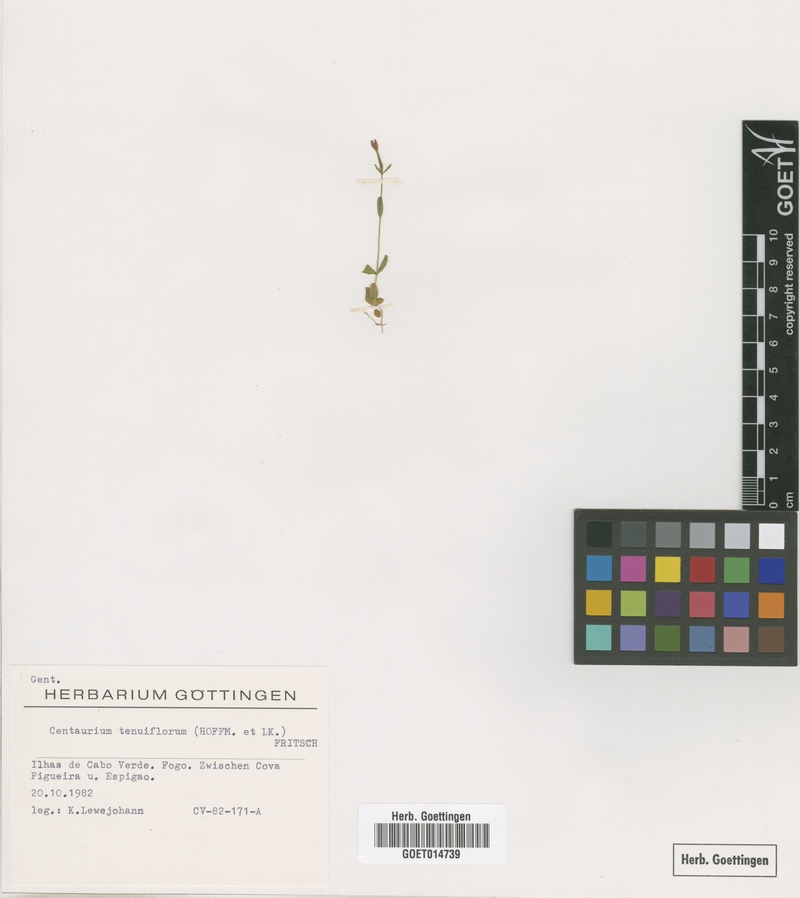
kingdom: Plantae
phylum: Tracheophyta
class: Magnoliopsida
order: Gentianales
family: Gentianaceae
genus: Centaurium
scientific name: Centaurium tenuiflorum
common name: Slender centaury
